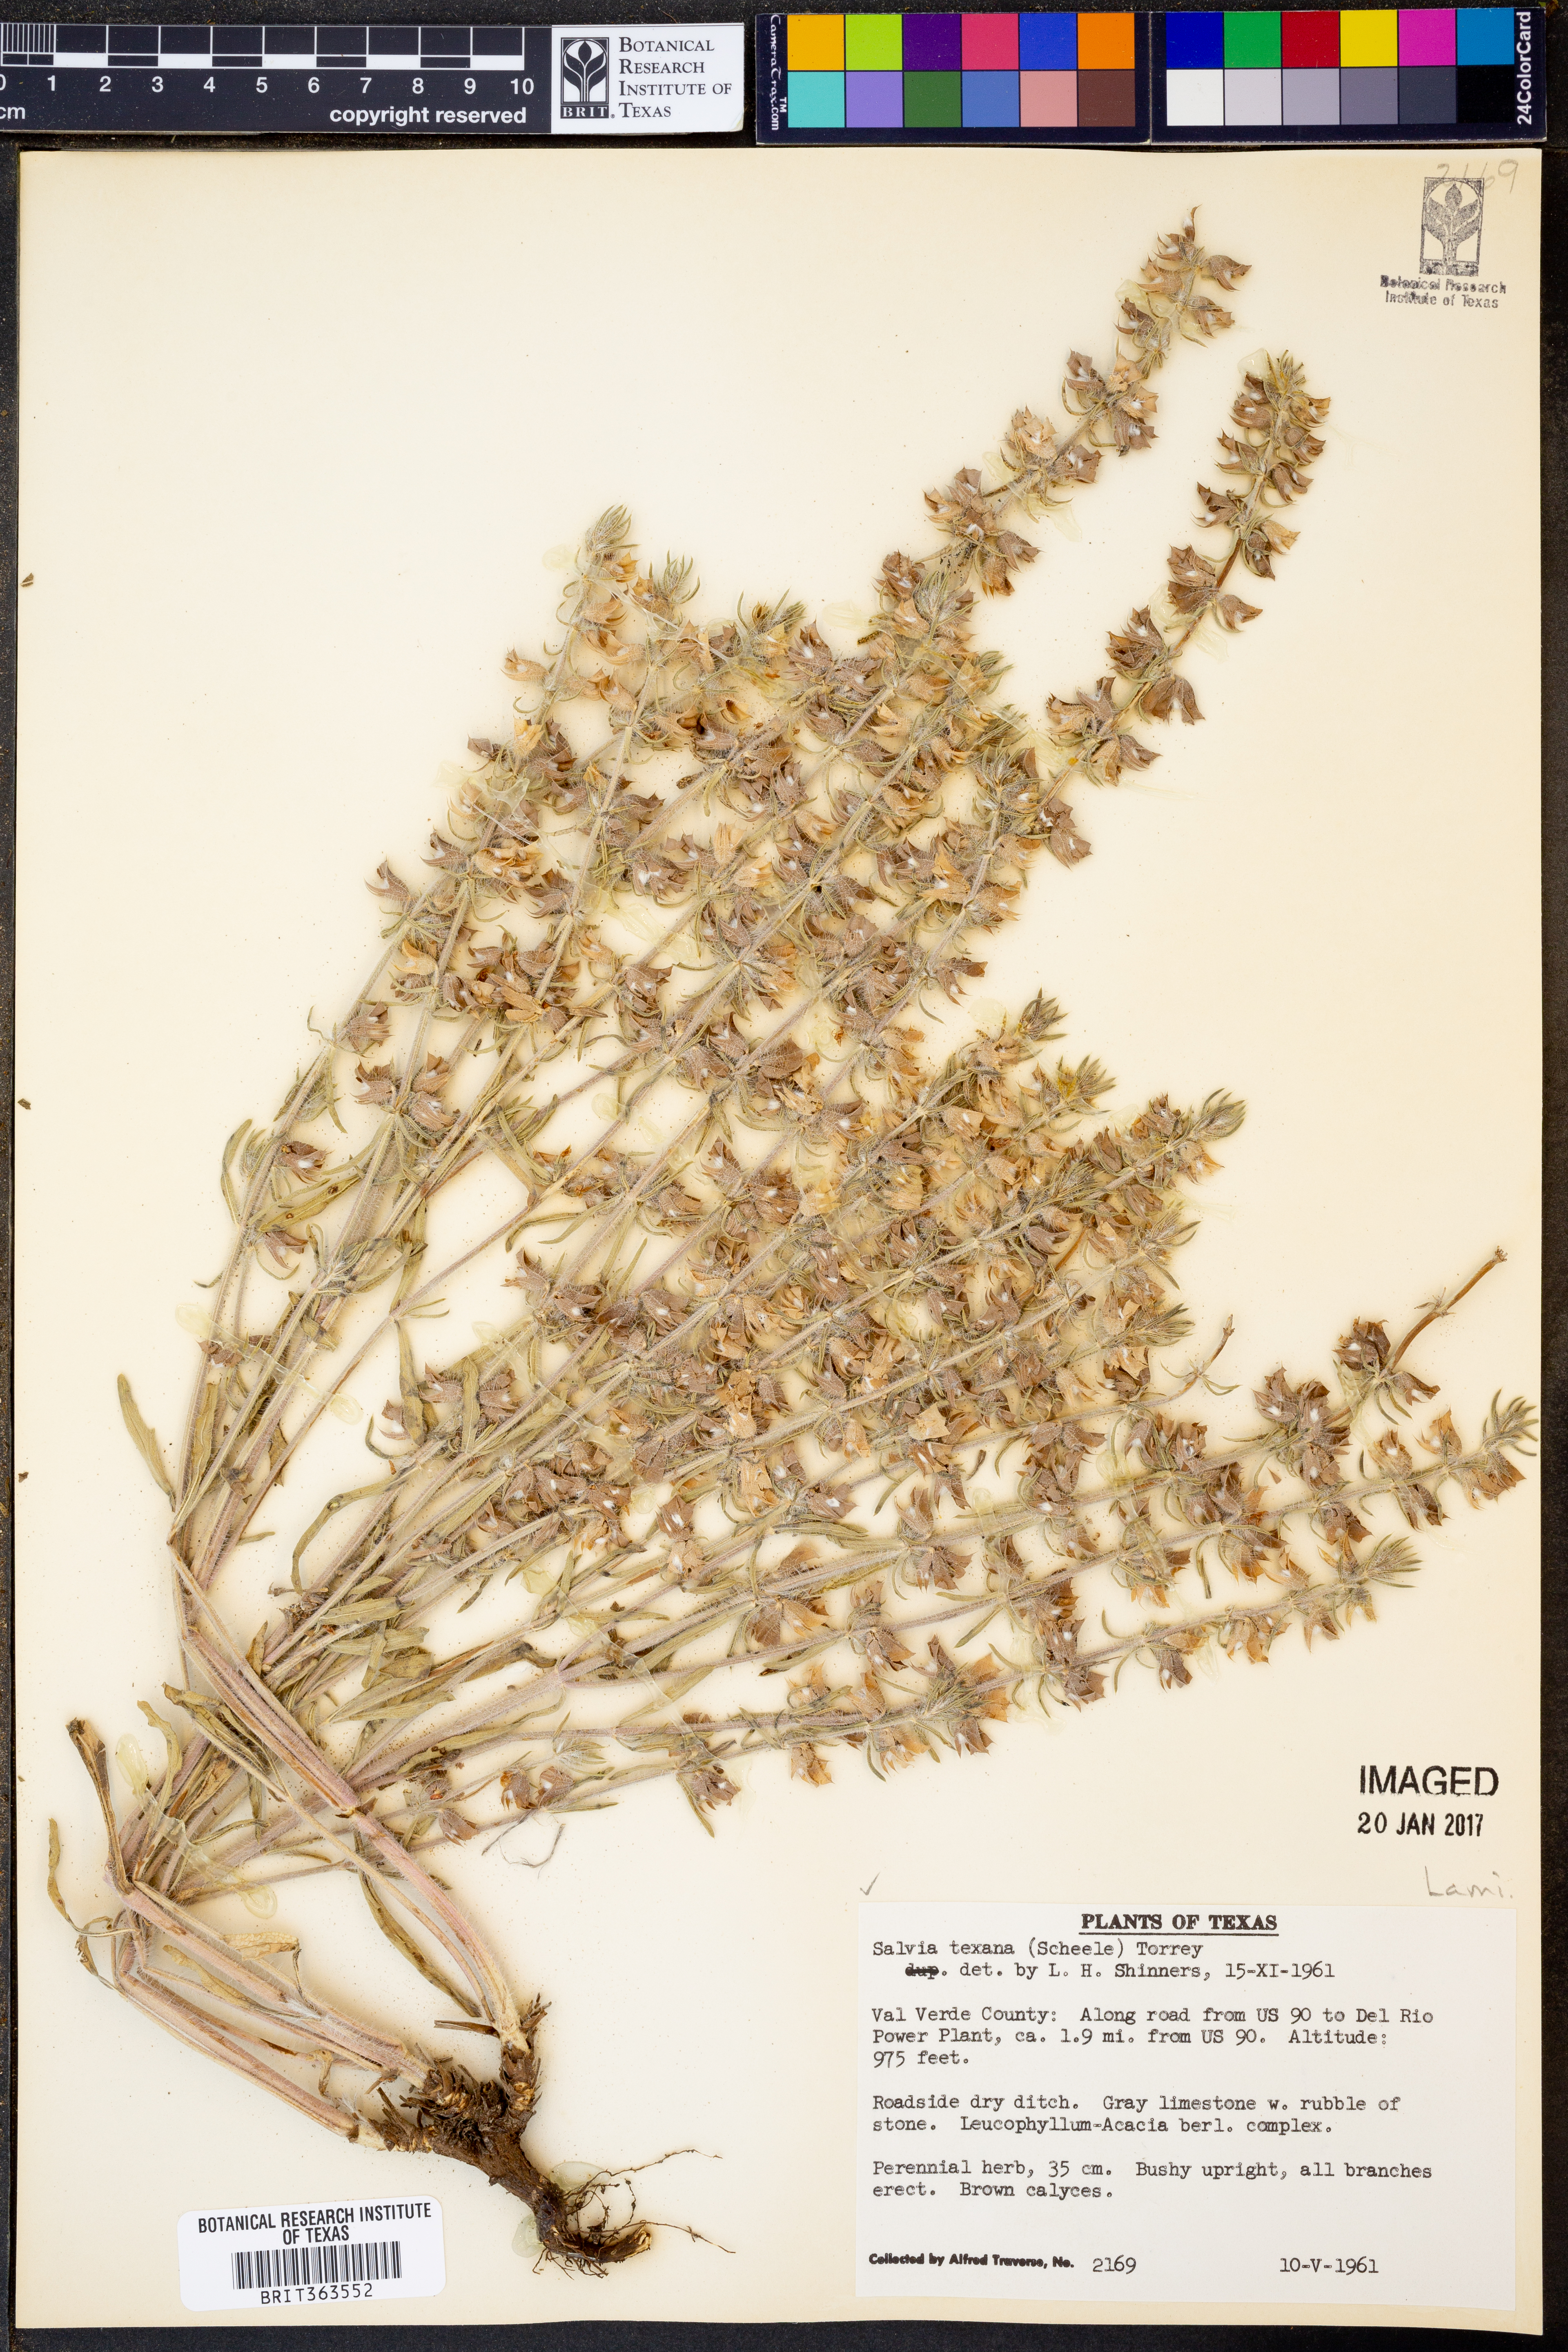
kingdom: Plantae
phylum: Tracheophyta
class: Magnoliopsida
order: Lamiales
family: Lamiaceae
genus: Salvia
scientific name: Salvia texana
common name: Texas sage
